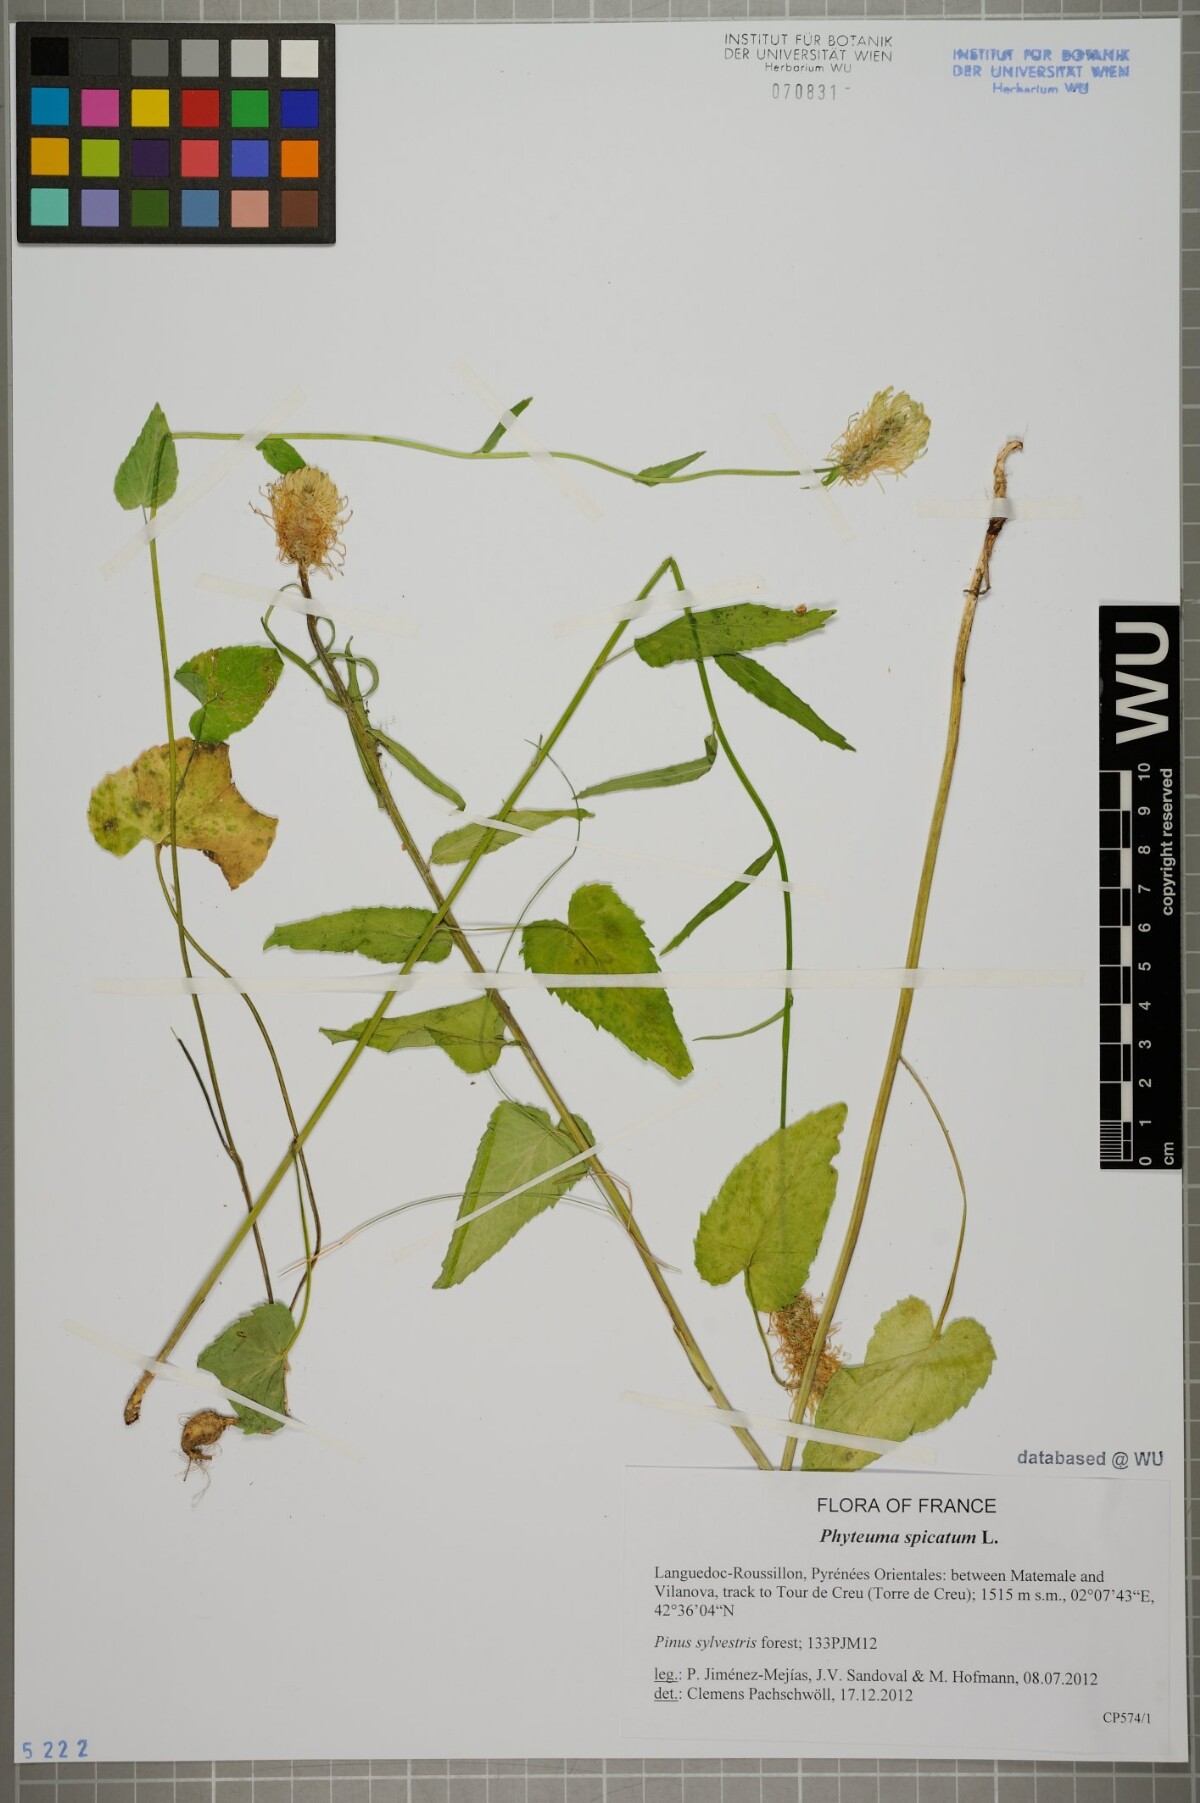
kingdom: Plantae
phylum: Tracheophyta
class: Magnoliopsida
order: Asterales
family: Campanulaceae
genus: Phyteuma
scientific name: Phyteuma spicatum
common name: Spiked rampion
